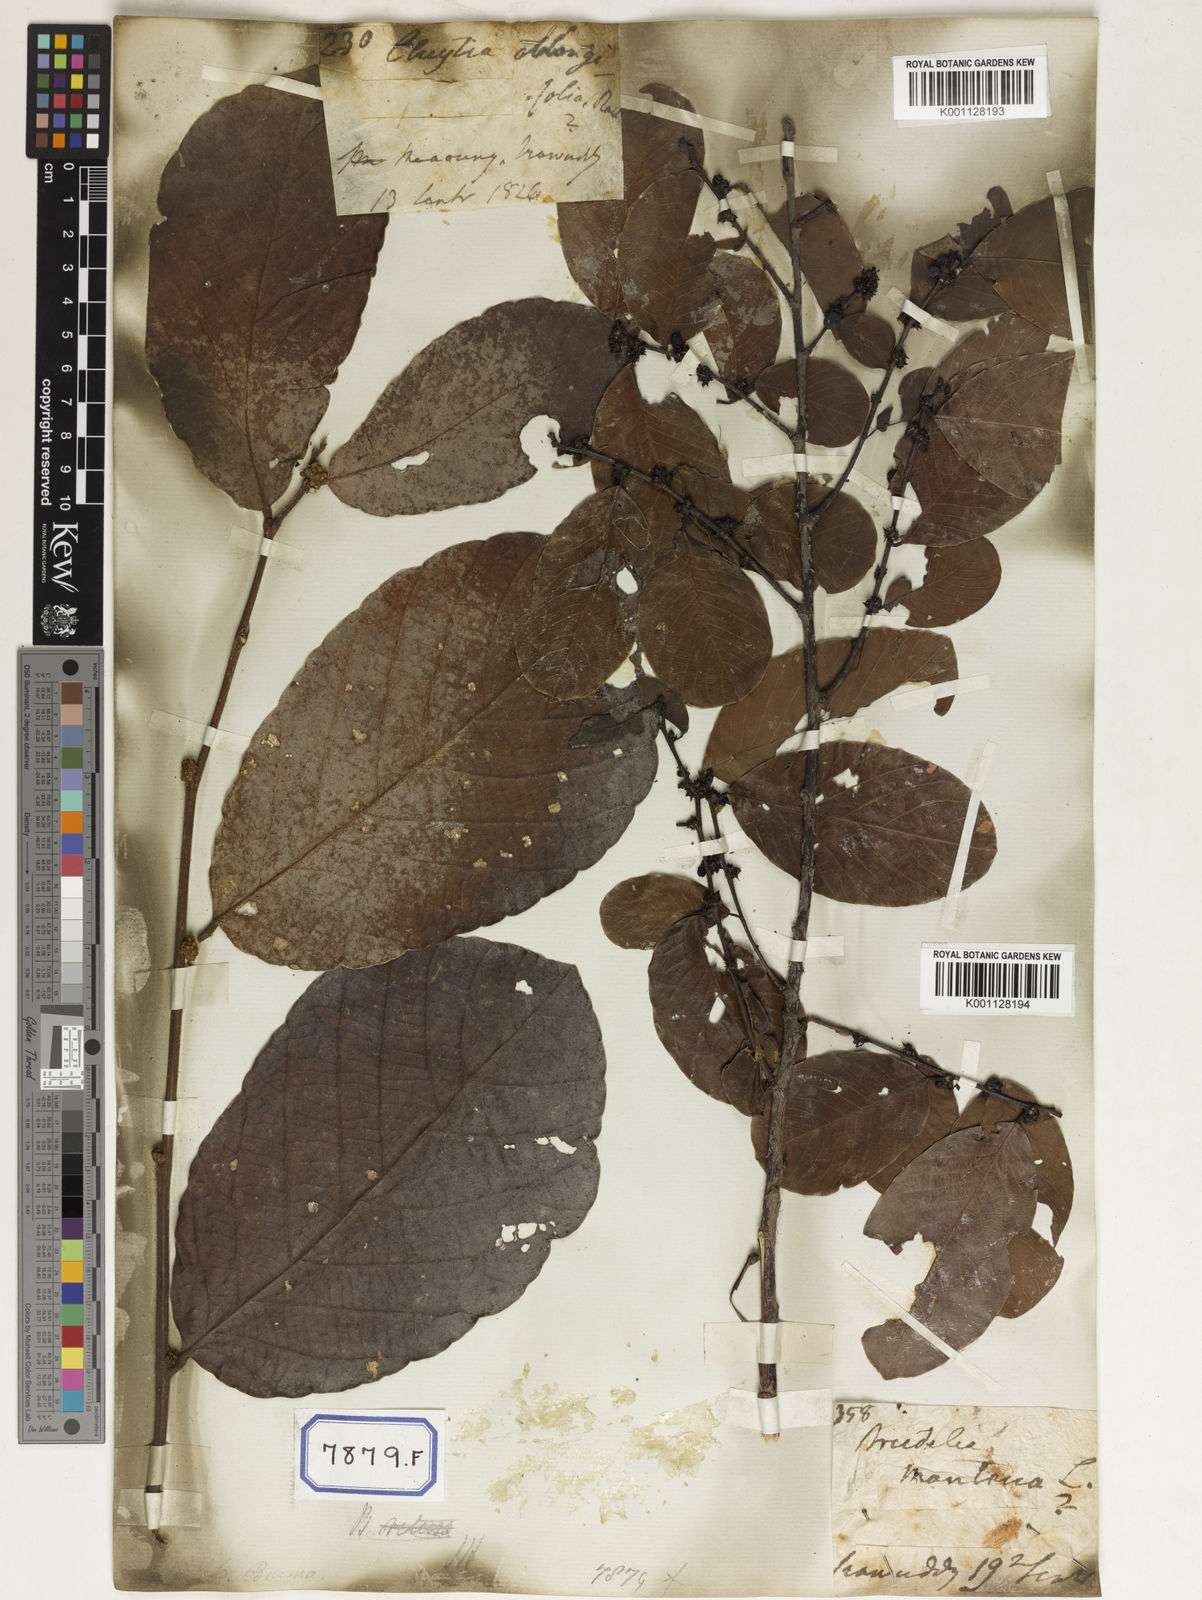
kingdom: Plantae
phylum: Tracheophyta
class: Magnoliopsida
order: Malpighiales
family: Phyllanthaceae
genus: Bridelia
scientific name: Bridelia montana
